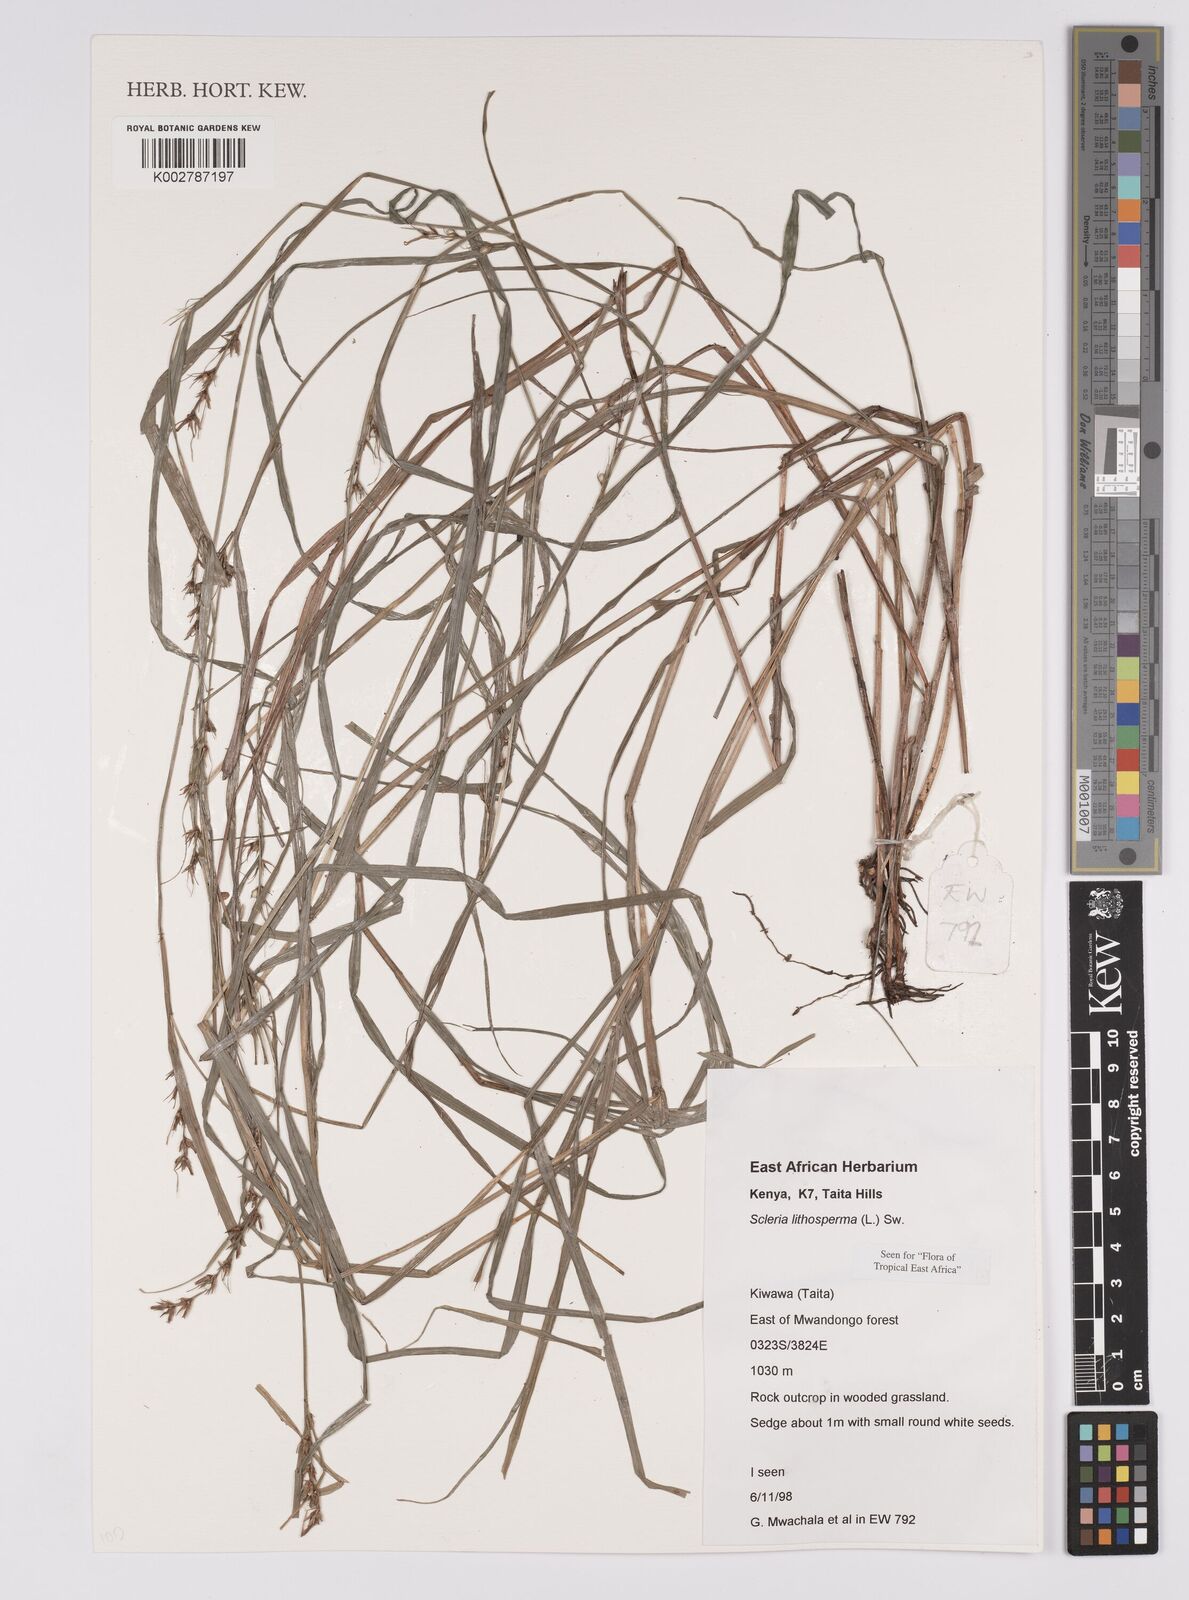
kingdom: Plantae
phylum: Tracheophyta
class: Liliopsida
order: Poales
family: Cyperaceae
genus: Scleria
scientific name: Scleria lithosperma
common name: Florida keys nut-rush
